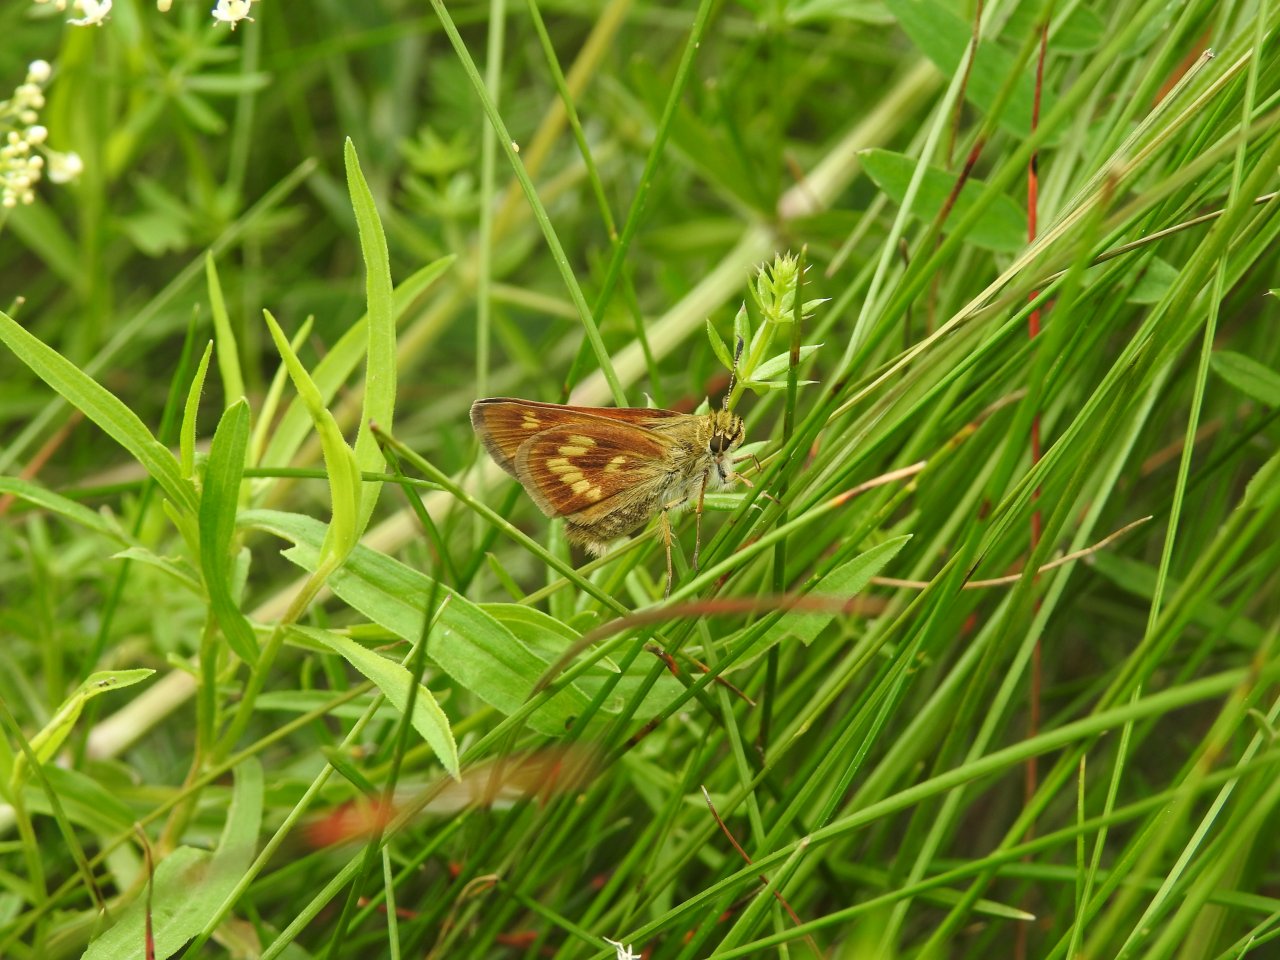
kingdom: Animalia
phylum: Arthropoda
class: Insecta
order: Lepidoptera
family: Hesperiidae
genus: Polites
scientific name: Polites
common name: Long Dash Skipper
